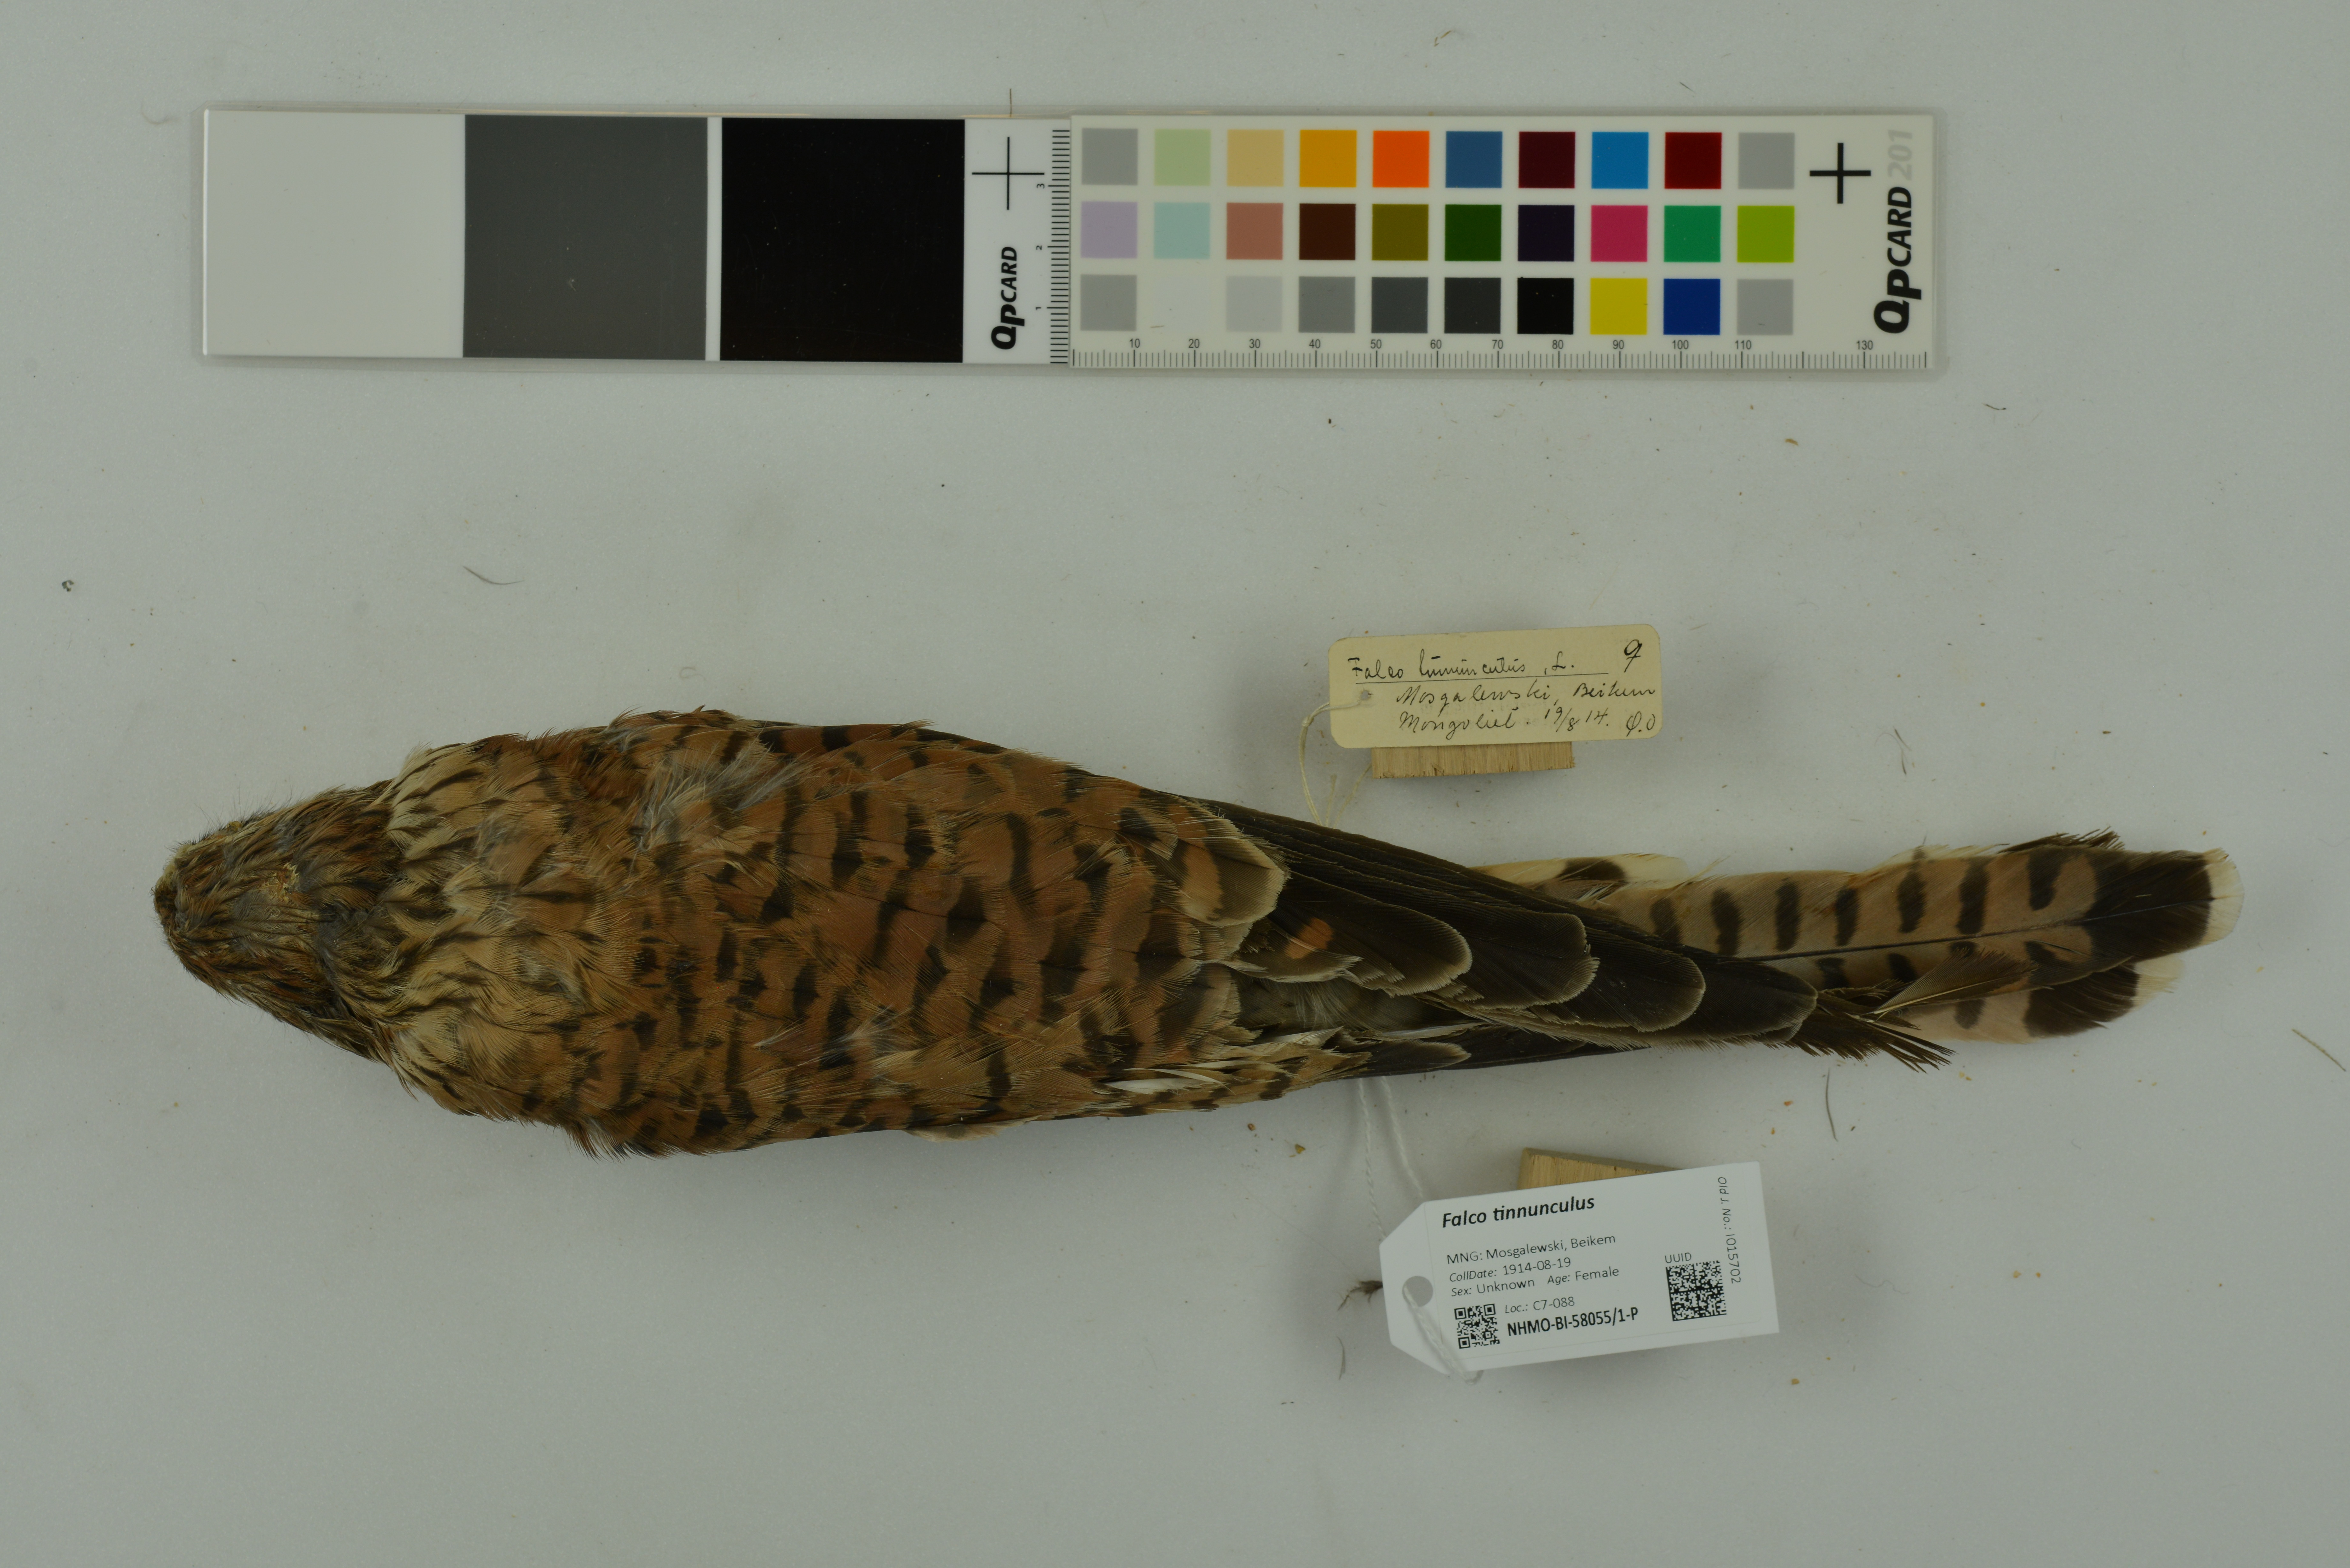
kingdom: Animalia
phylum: Chordata
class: Aves
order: Falconiformes
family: Falconidae
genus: Falco
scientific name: Falco tinnunculus
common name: Common kestrel
